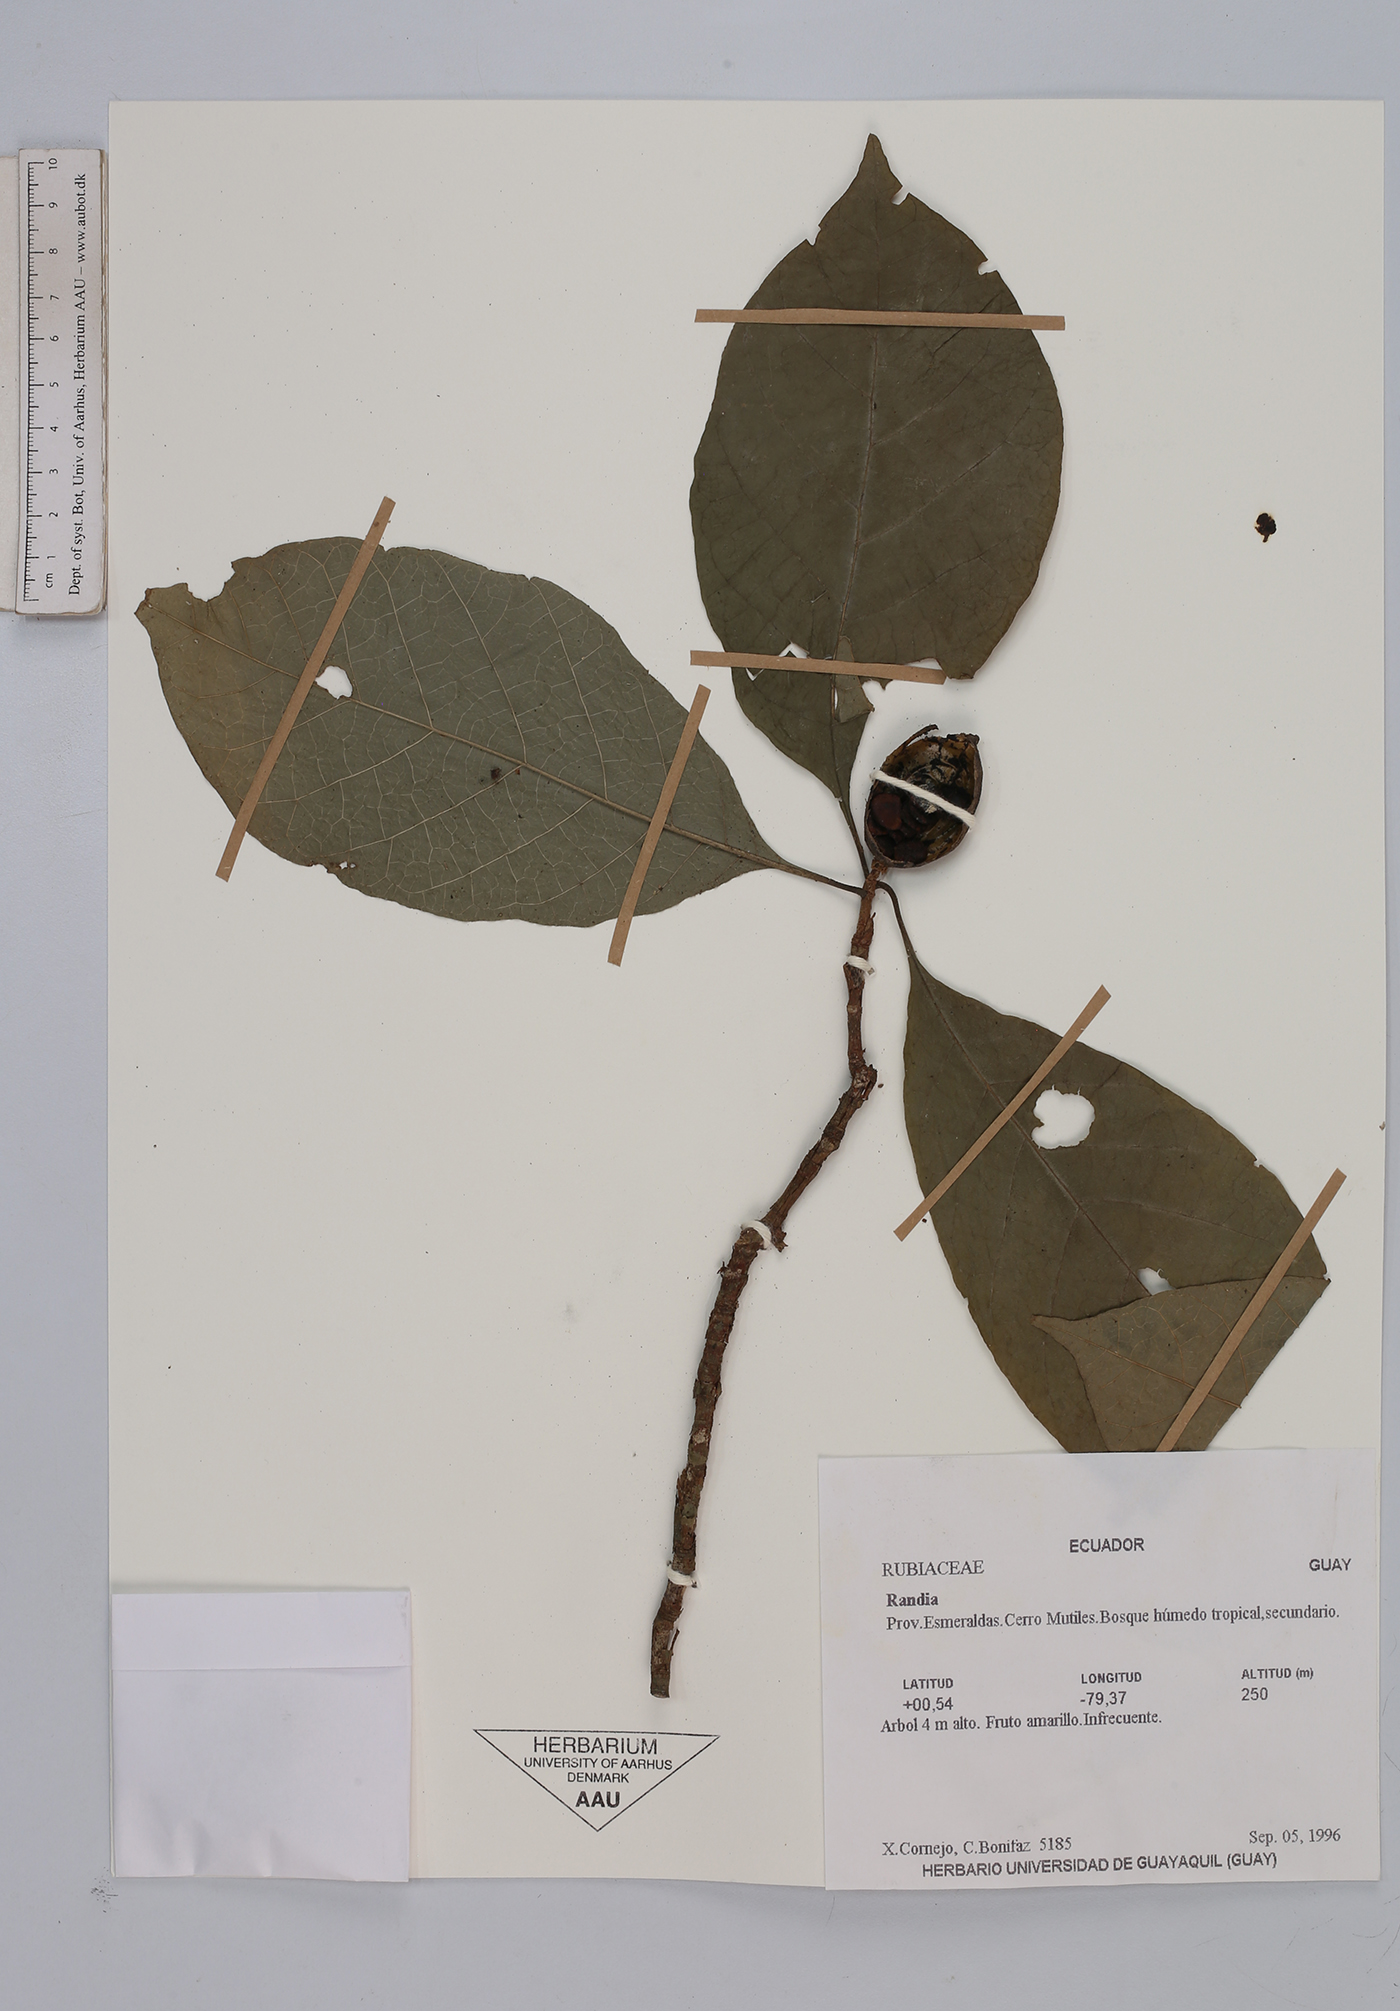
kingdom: Plantae
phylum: Tracheophyta
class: Magnoliopsida
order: Gentianales
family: Rubiaceae
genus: Randia
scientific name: Randia
